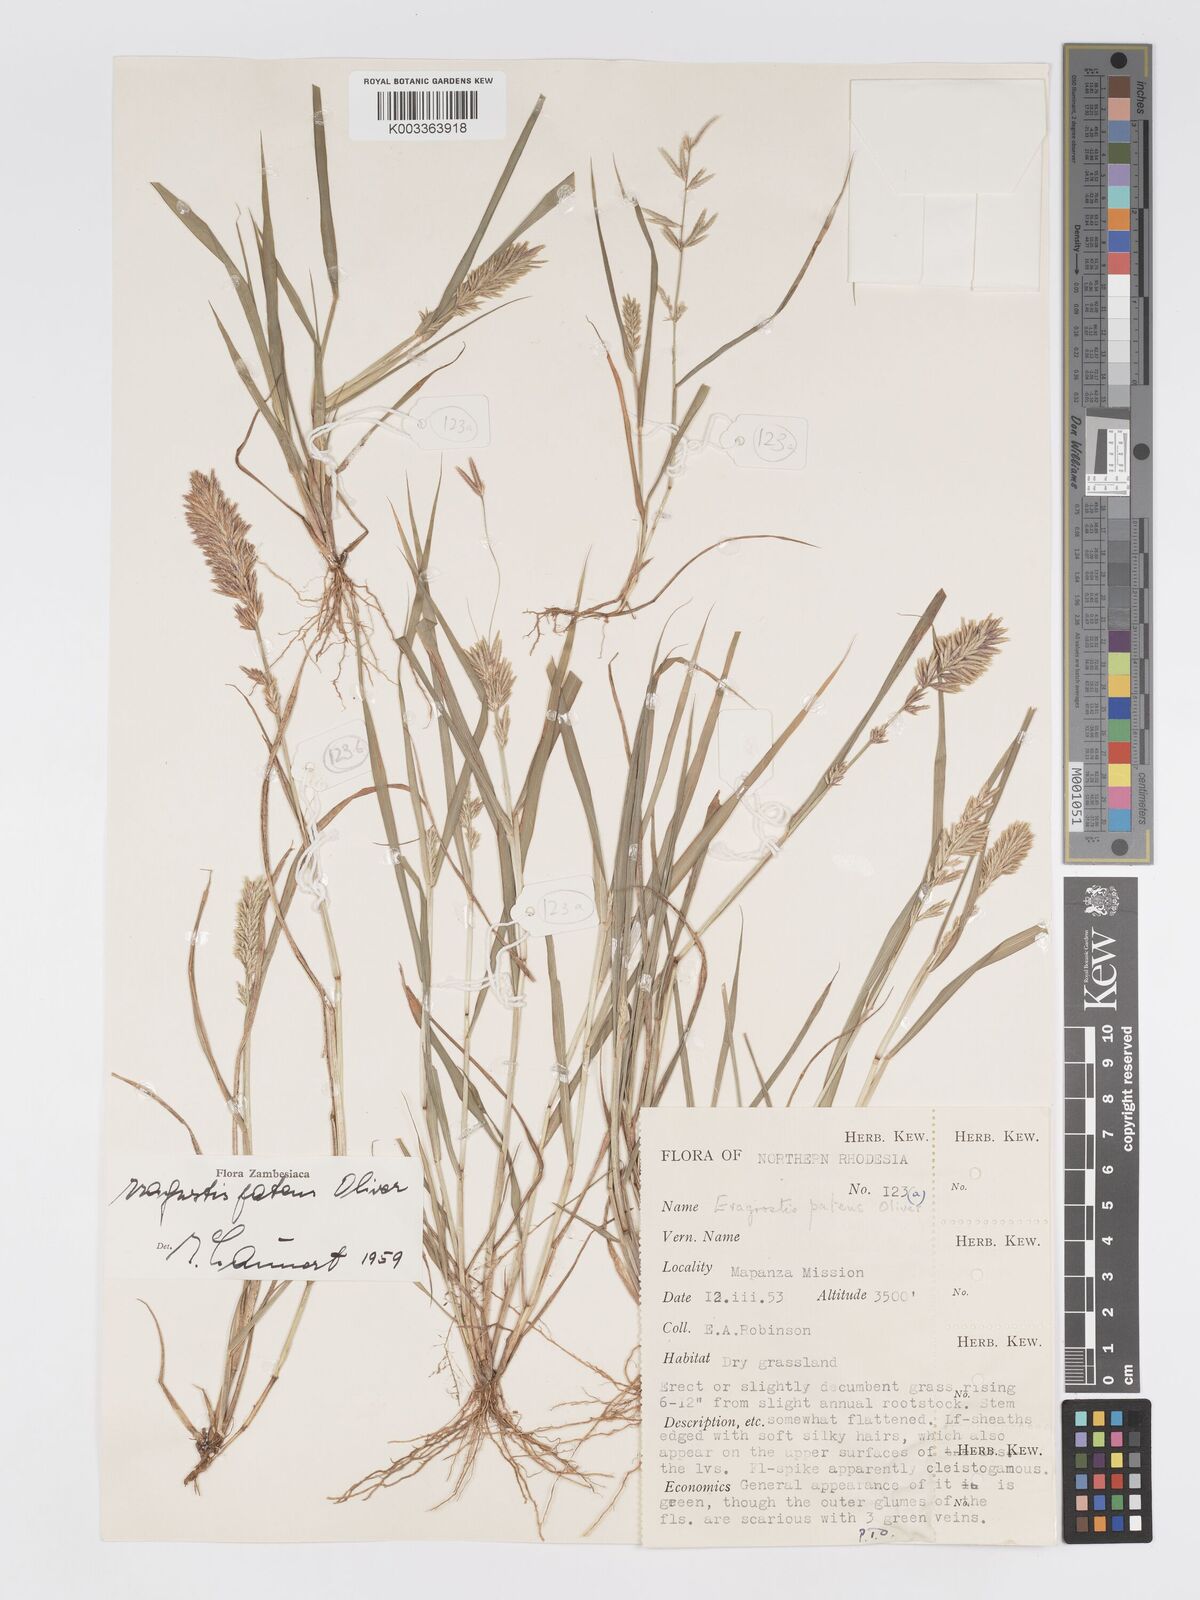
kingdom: Plantae
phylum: Tracheophyta
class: Liliopsida
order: Poales
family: Poaceae
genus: Eragrostis
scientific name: Eragrostis patens
